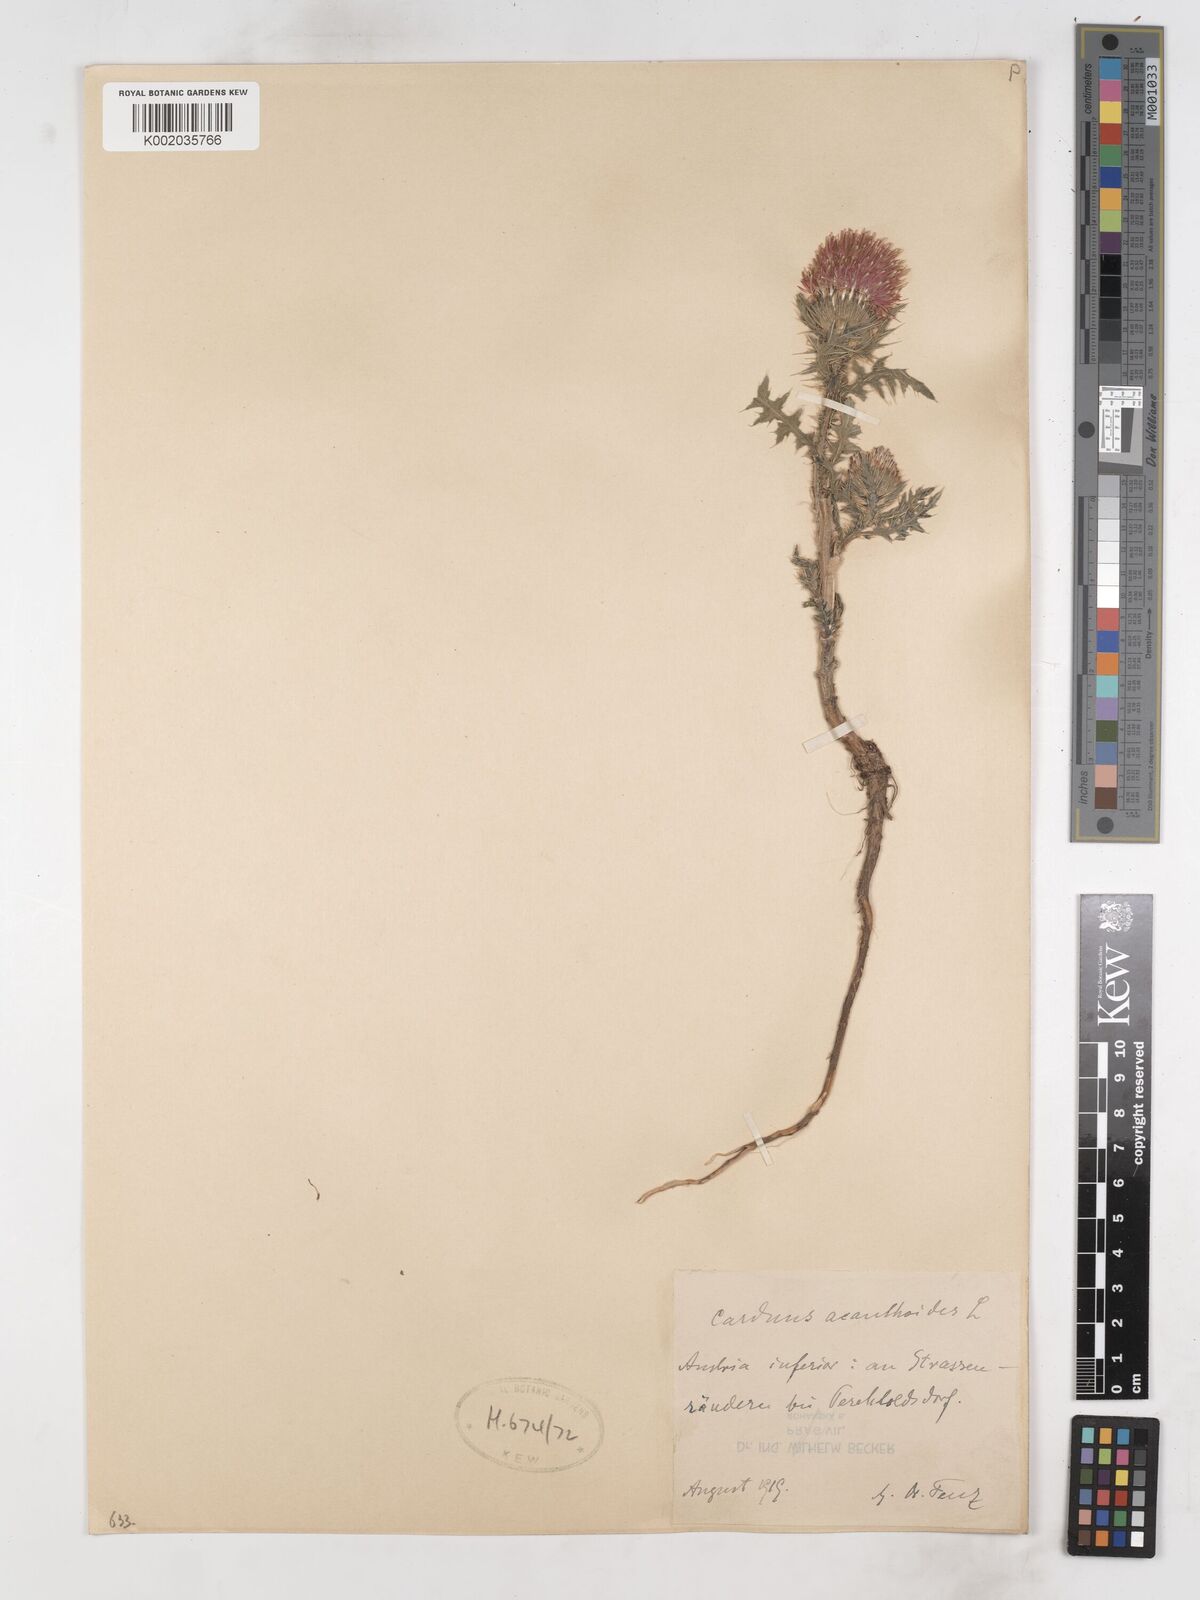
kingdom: Plantae
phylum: Tracheophyta
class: Magnoliopsida
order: Asterales
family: Asteraceae
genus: Carduus
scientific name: Carduus acanthoides
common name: Plumeless thistle
